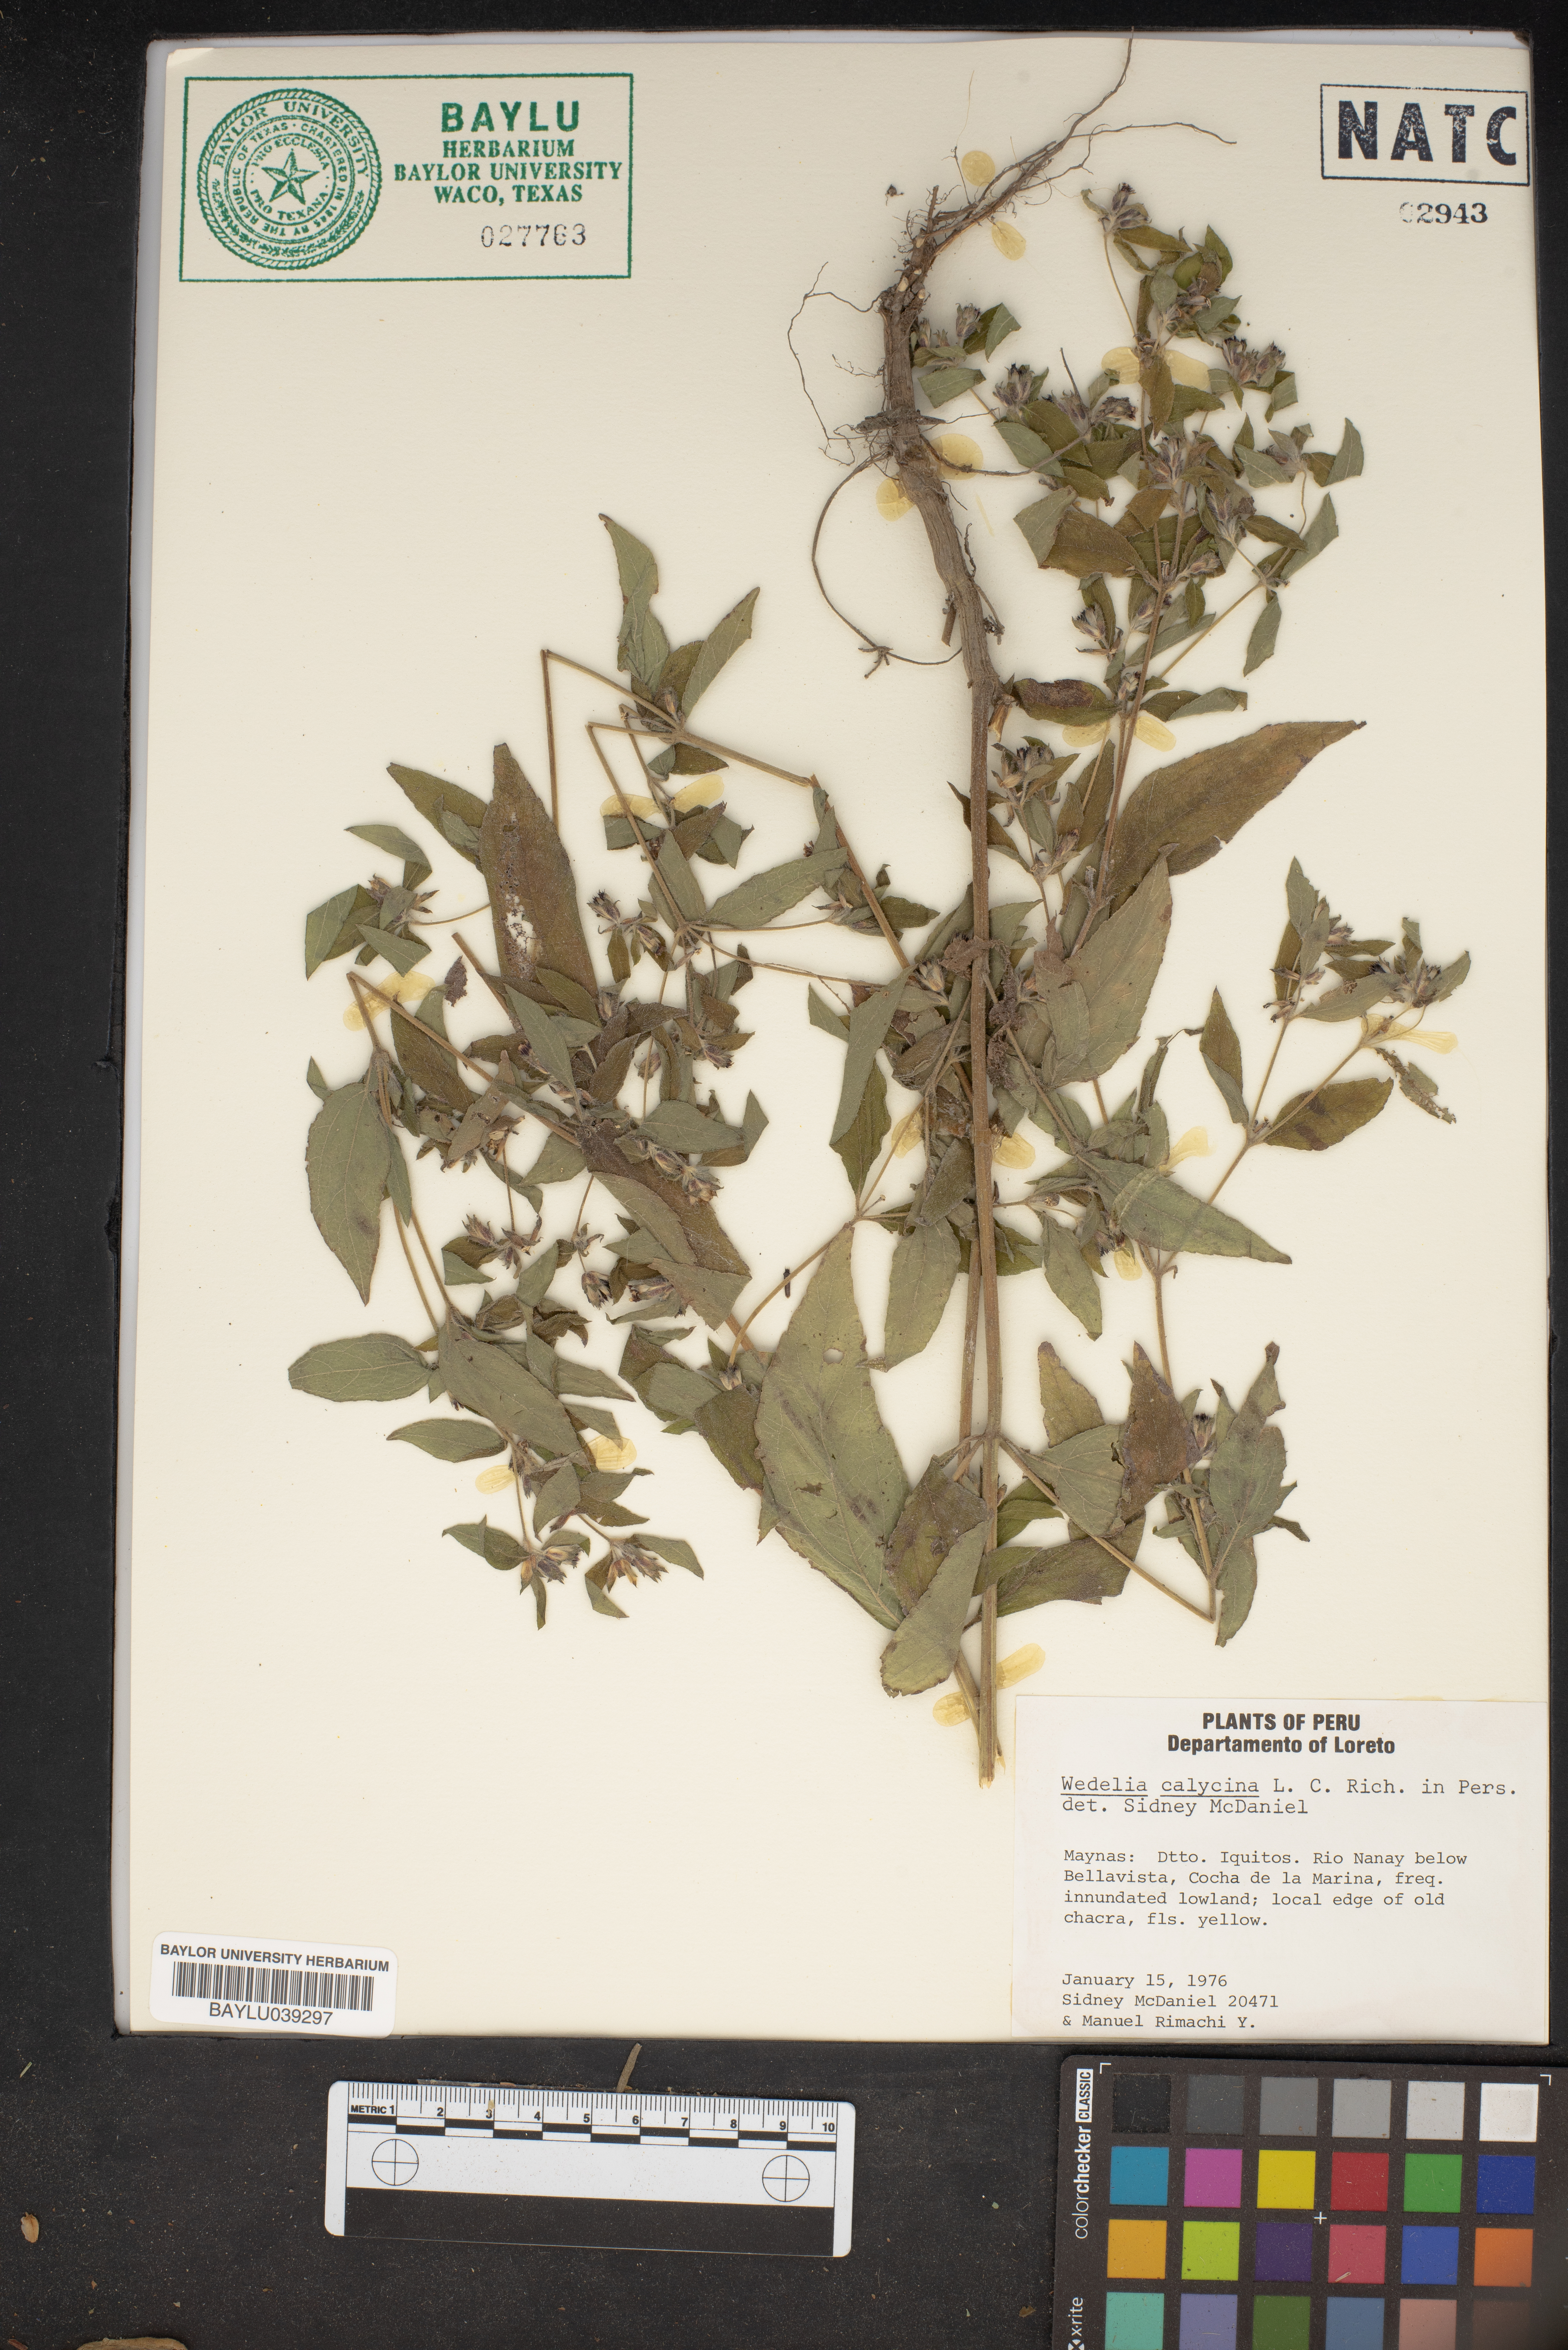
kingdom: Plantae
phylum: Tracheophyta
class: Magnoliopsida
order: Asterales
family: Asteraceae
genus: Wedelia
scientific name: Wedelia calycina
